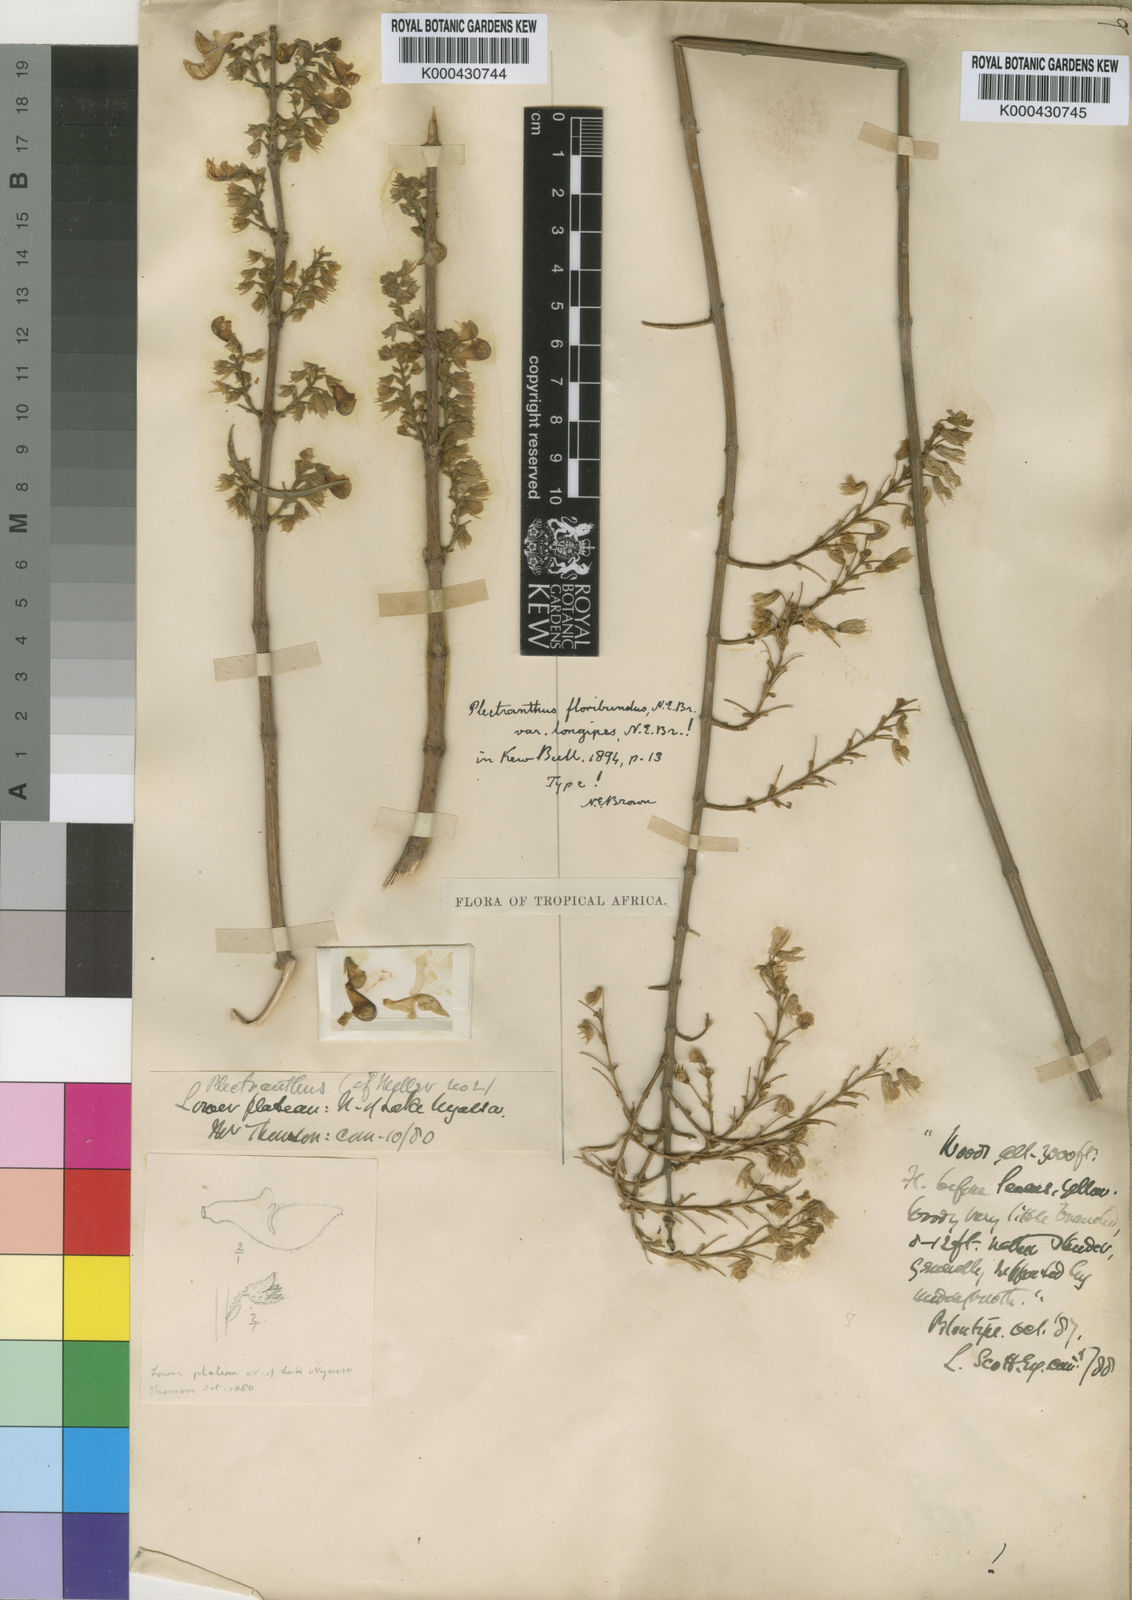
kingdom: Plantae
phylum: Tracheophyta
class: Magnoliopsida
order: Lamiales
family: Lamiaceae
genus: Coleus
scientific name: Coleus esculentus
